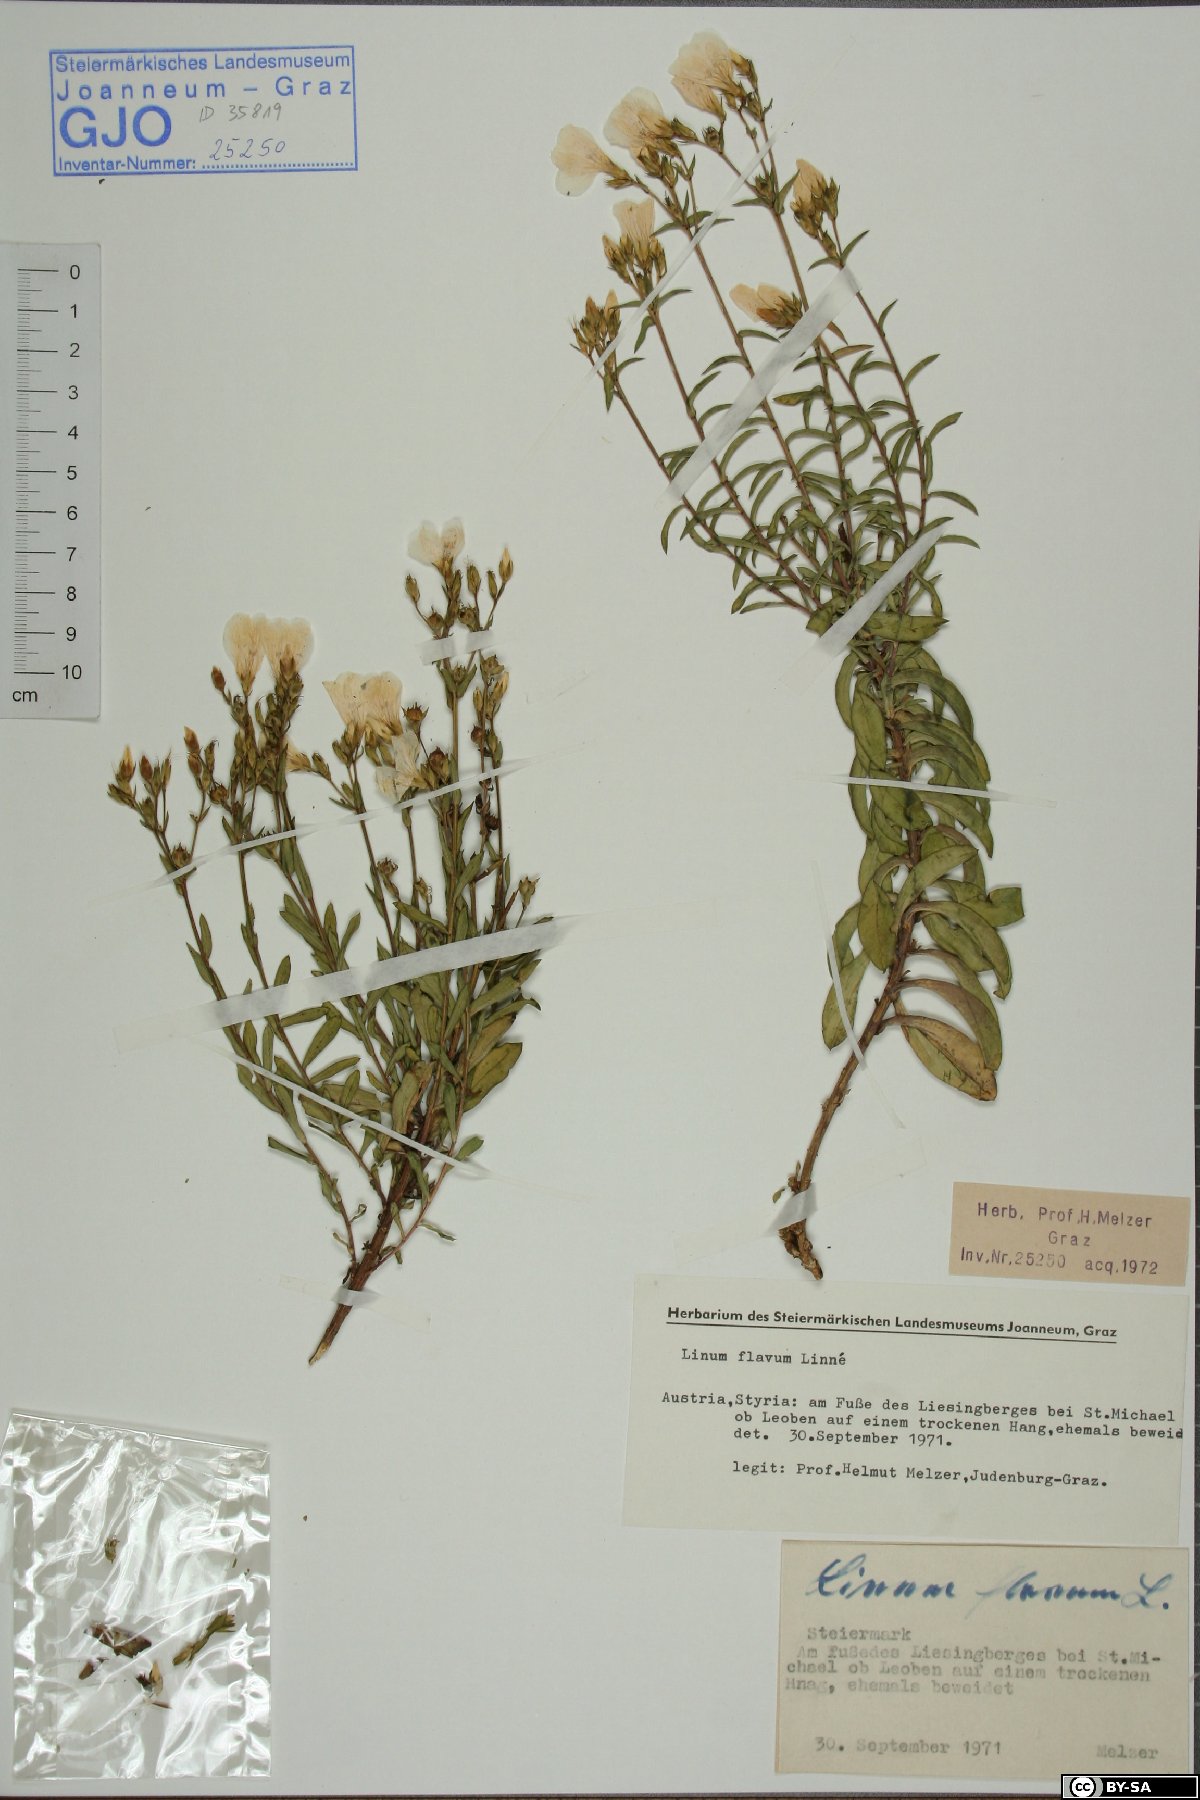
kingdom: Plantae
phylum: Tracheophyta
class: Magnoliopsida
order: Malpighiales
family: Linaceae
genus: Linum
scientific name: Linum flavum
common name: Yellow flax
